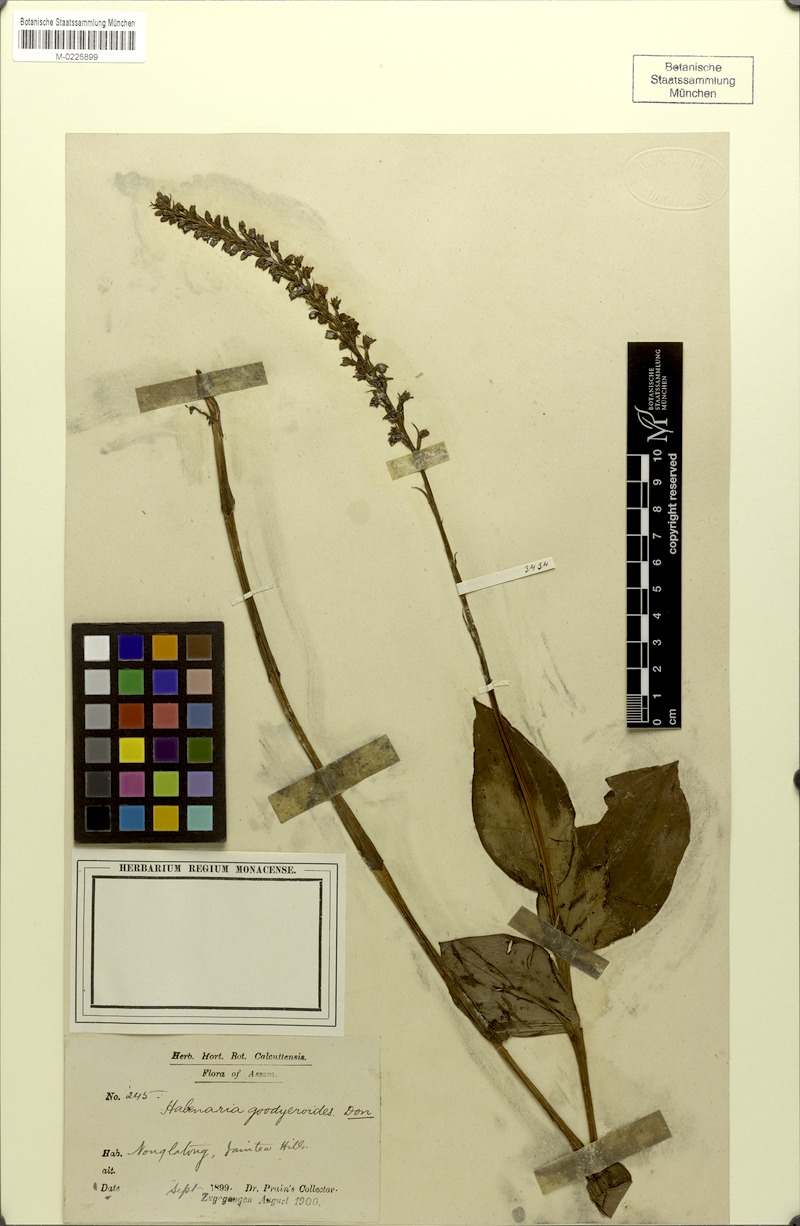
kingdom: Plantae
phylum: Tracheophyta
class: Liliopsida
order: Asparagales
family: Orchidaceae
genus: Peristylus
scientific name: Peristylus goodyeroides
